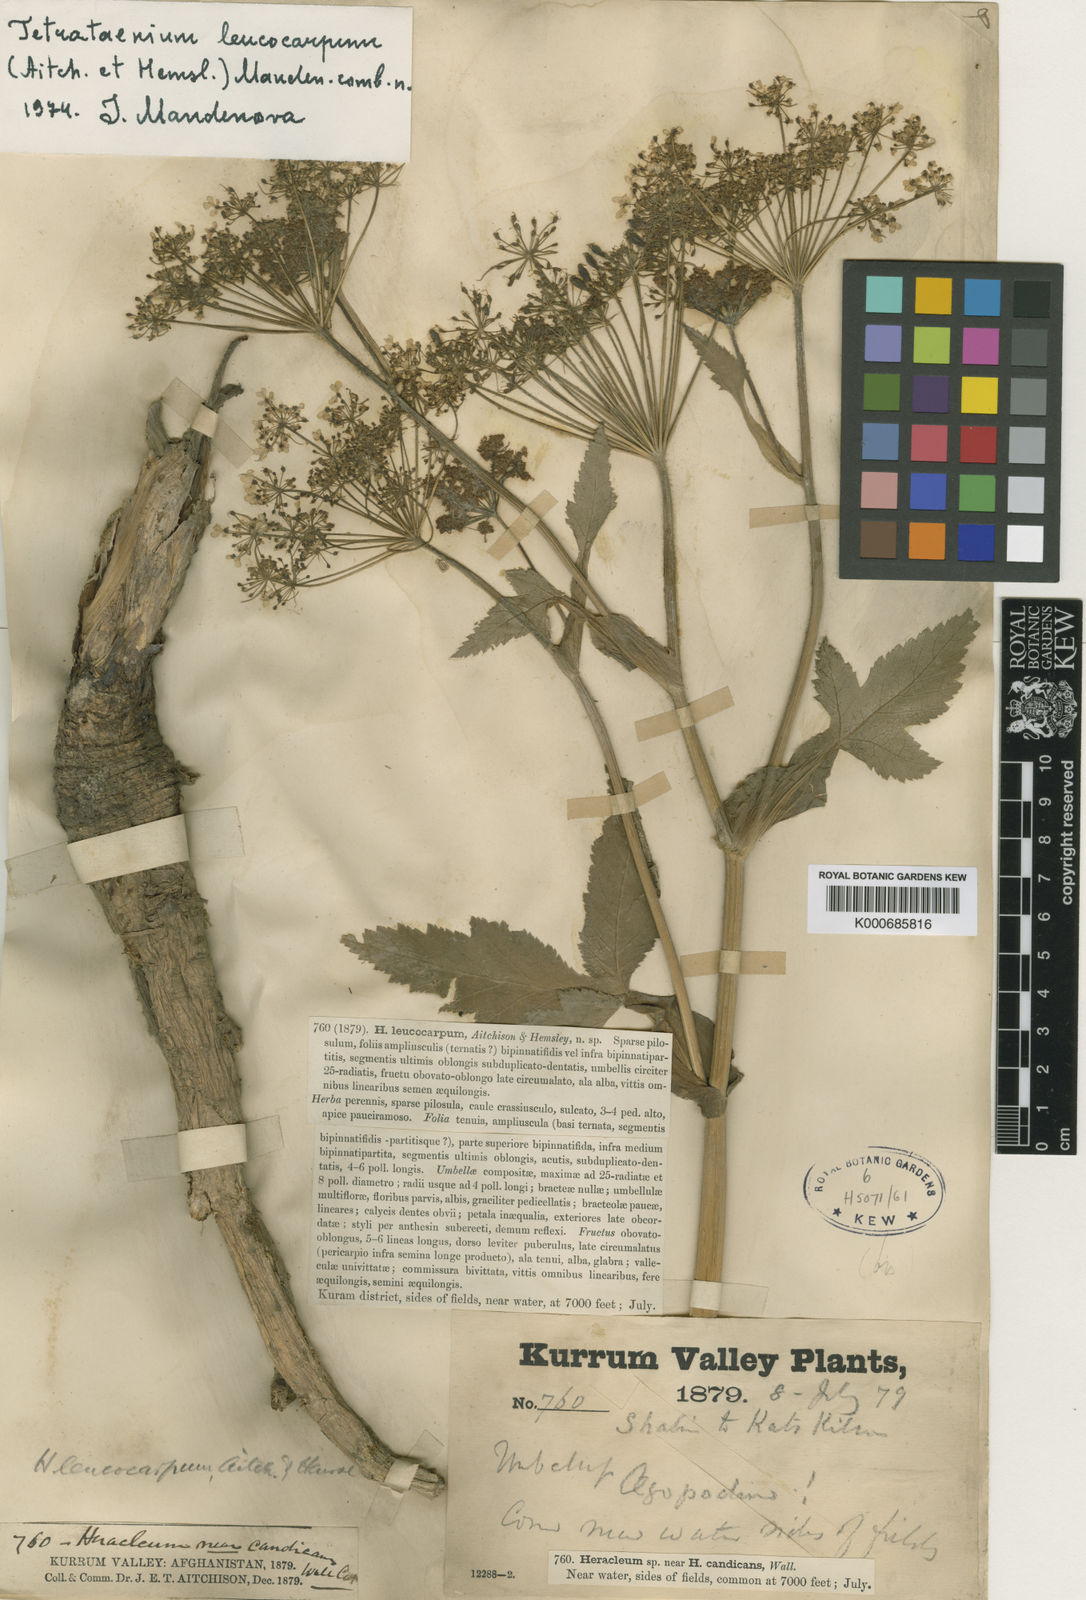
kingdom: Plantae
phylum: Tracheophyta
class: Magnoliopsida
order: Apiales
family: Apiaceae
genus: Tetrataenium
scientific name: Tetrataenium leucocarpum
